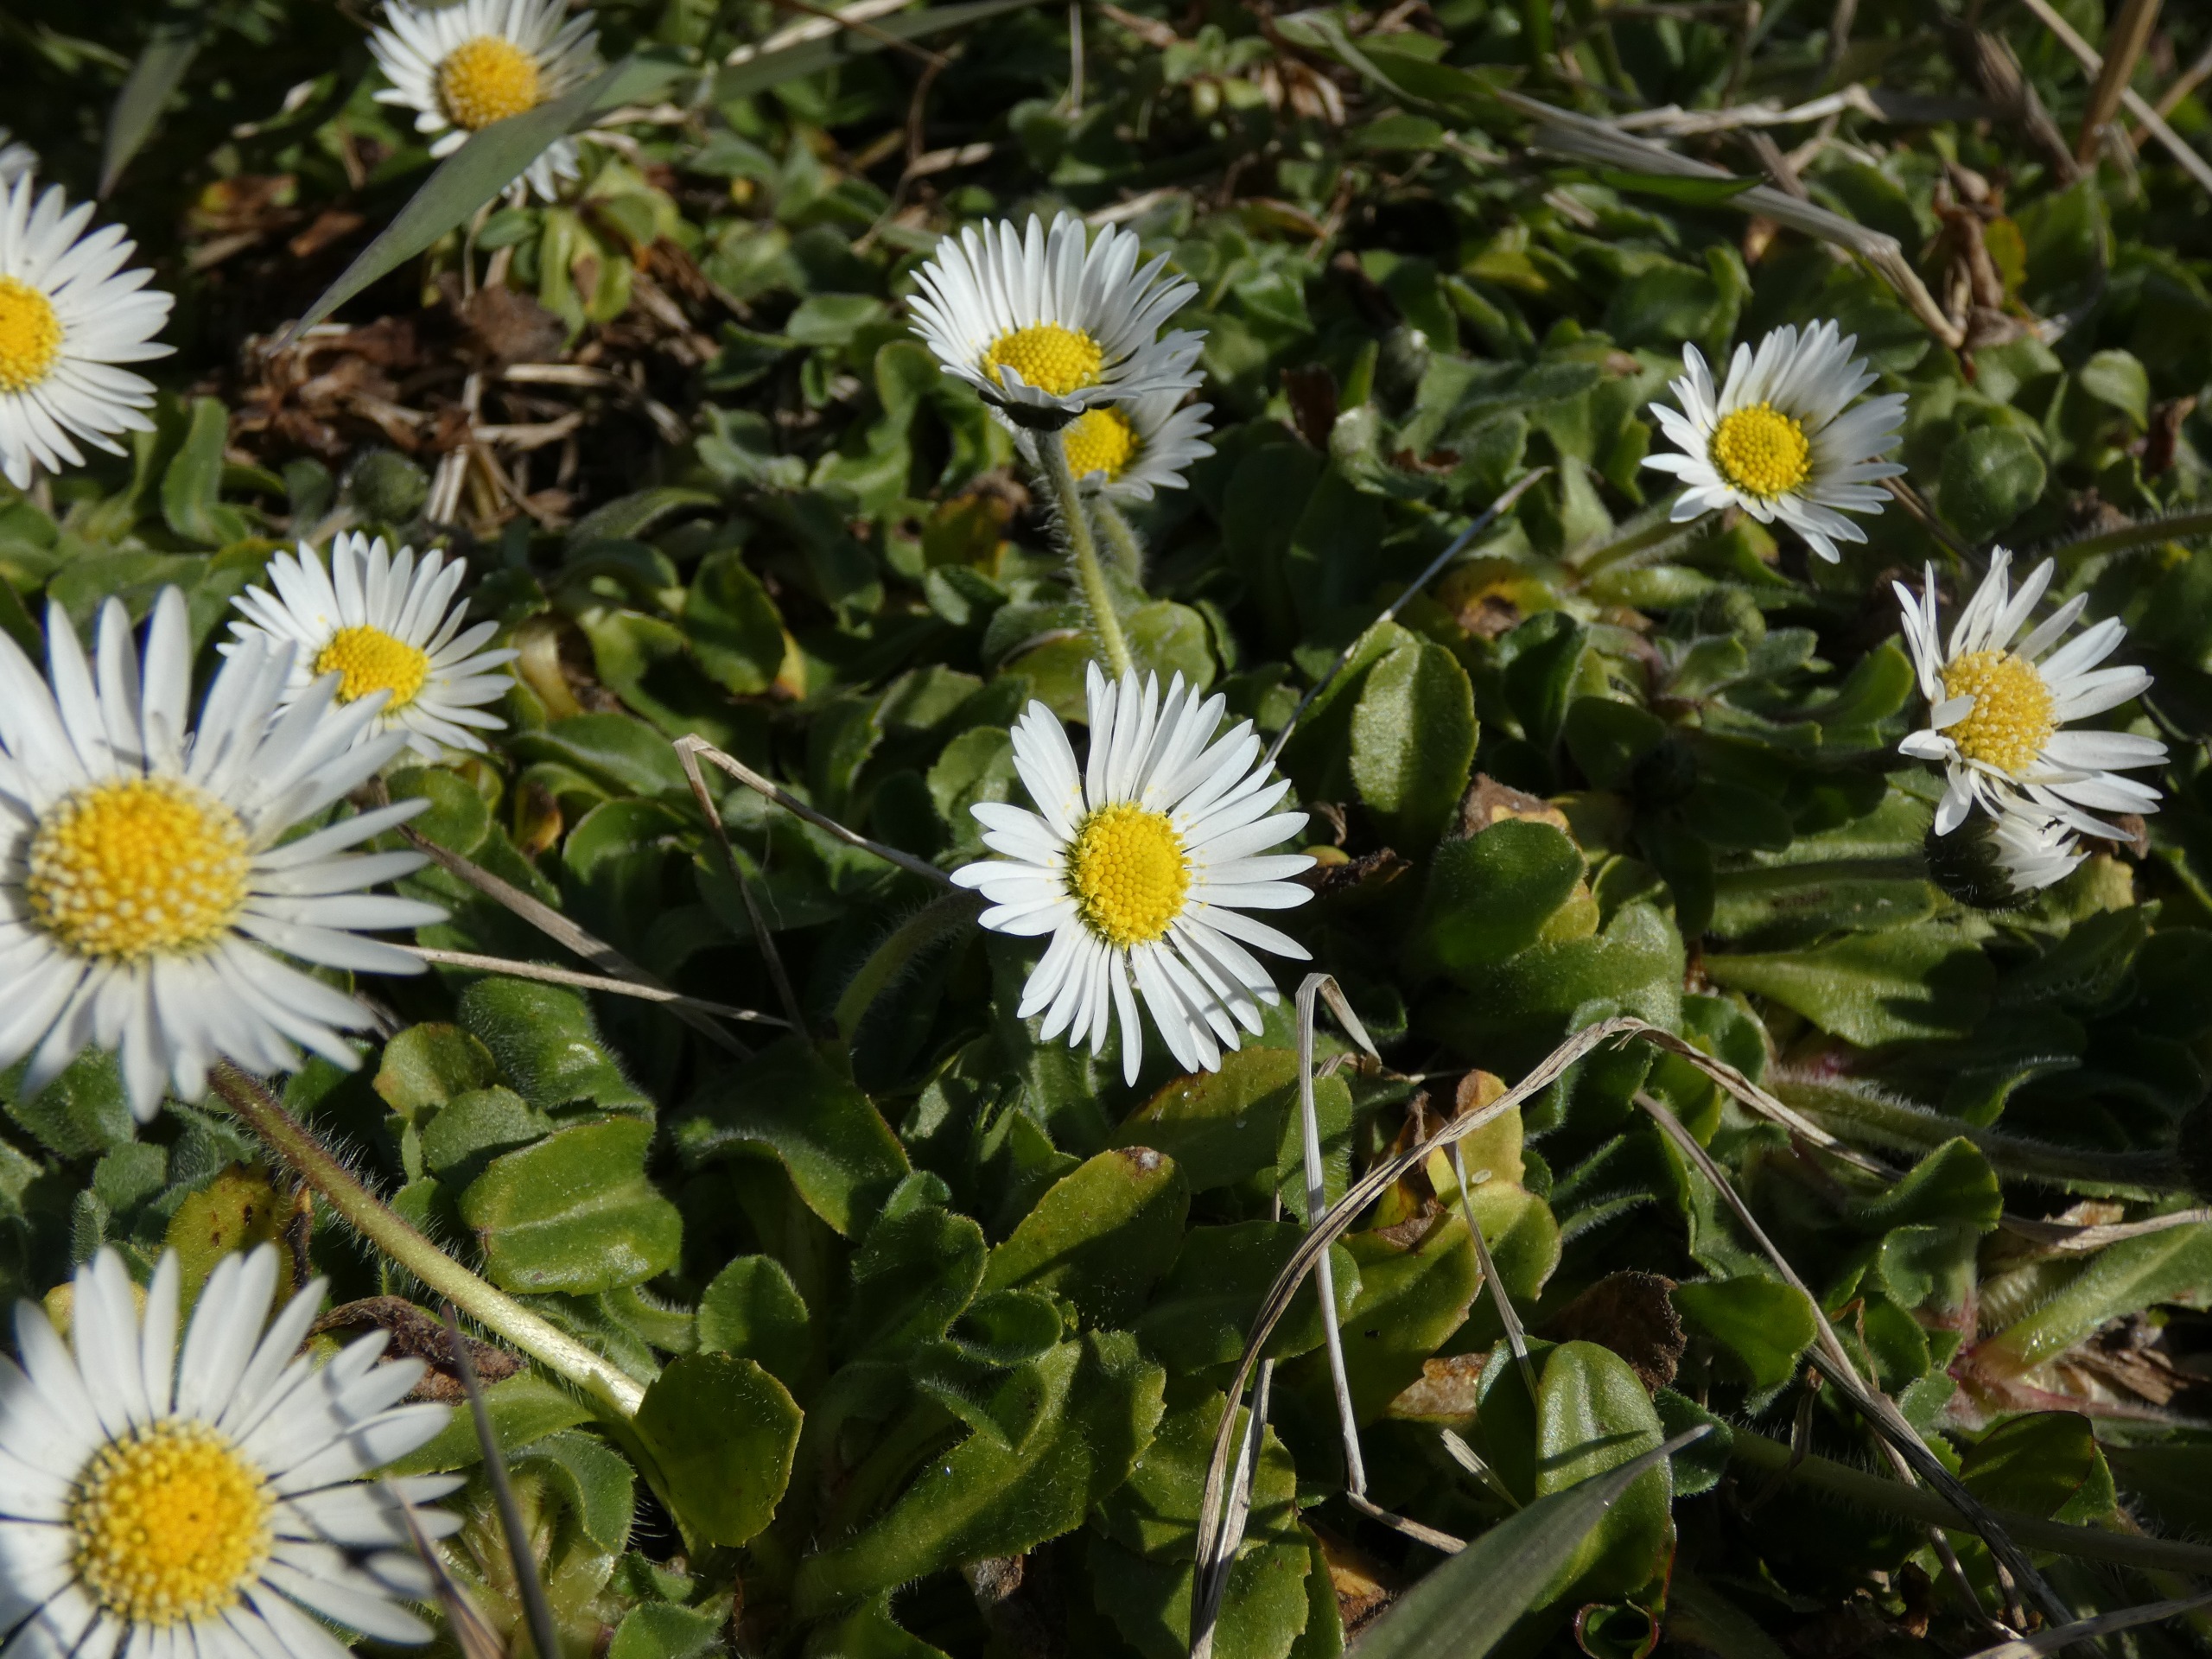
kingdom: Plantae
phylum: Tracheophyta
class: Magnoliopsida
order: Asterales
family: Asteraceae
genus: Bellis
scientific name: Bellis perennis
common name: Tusindfryd
